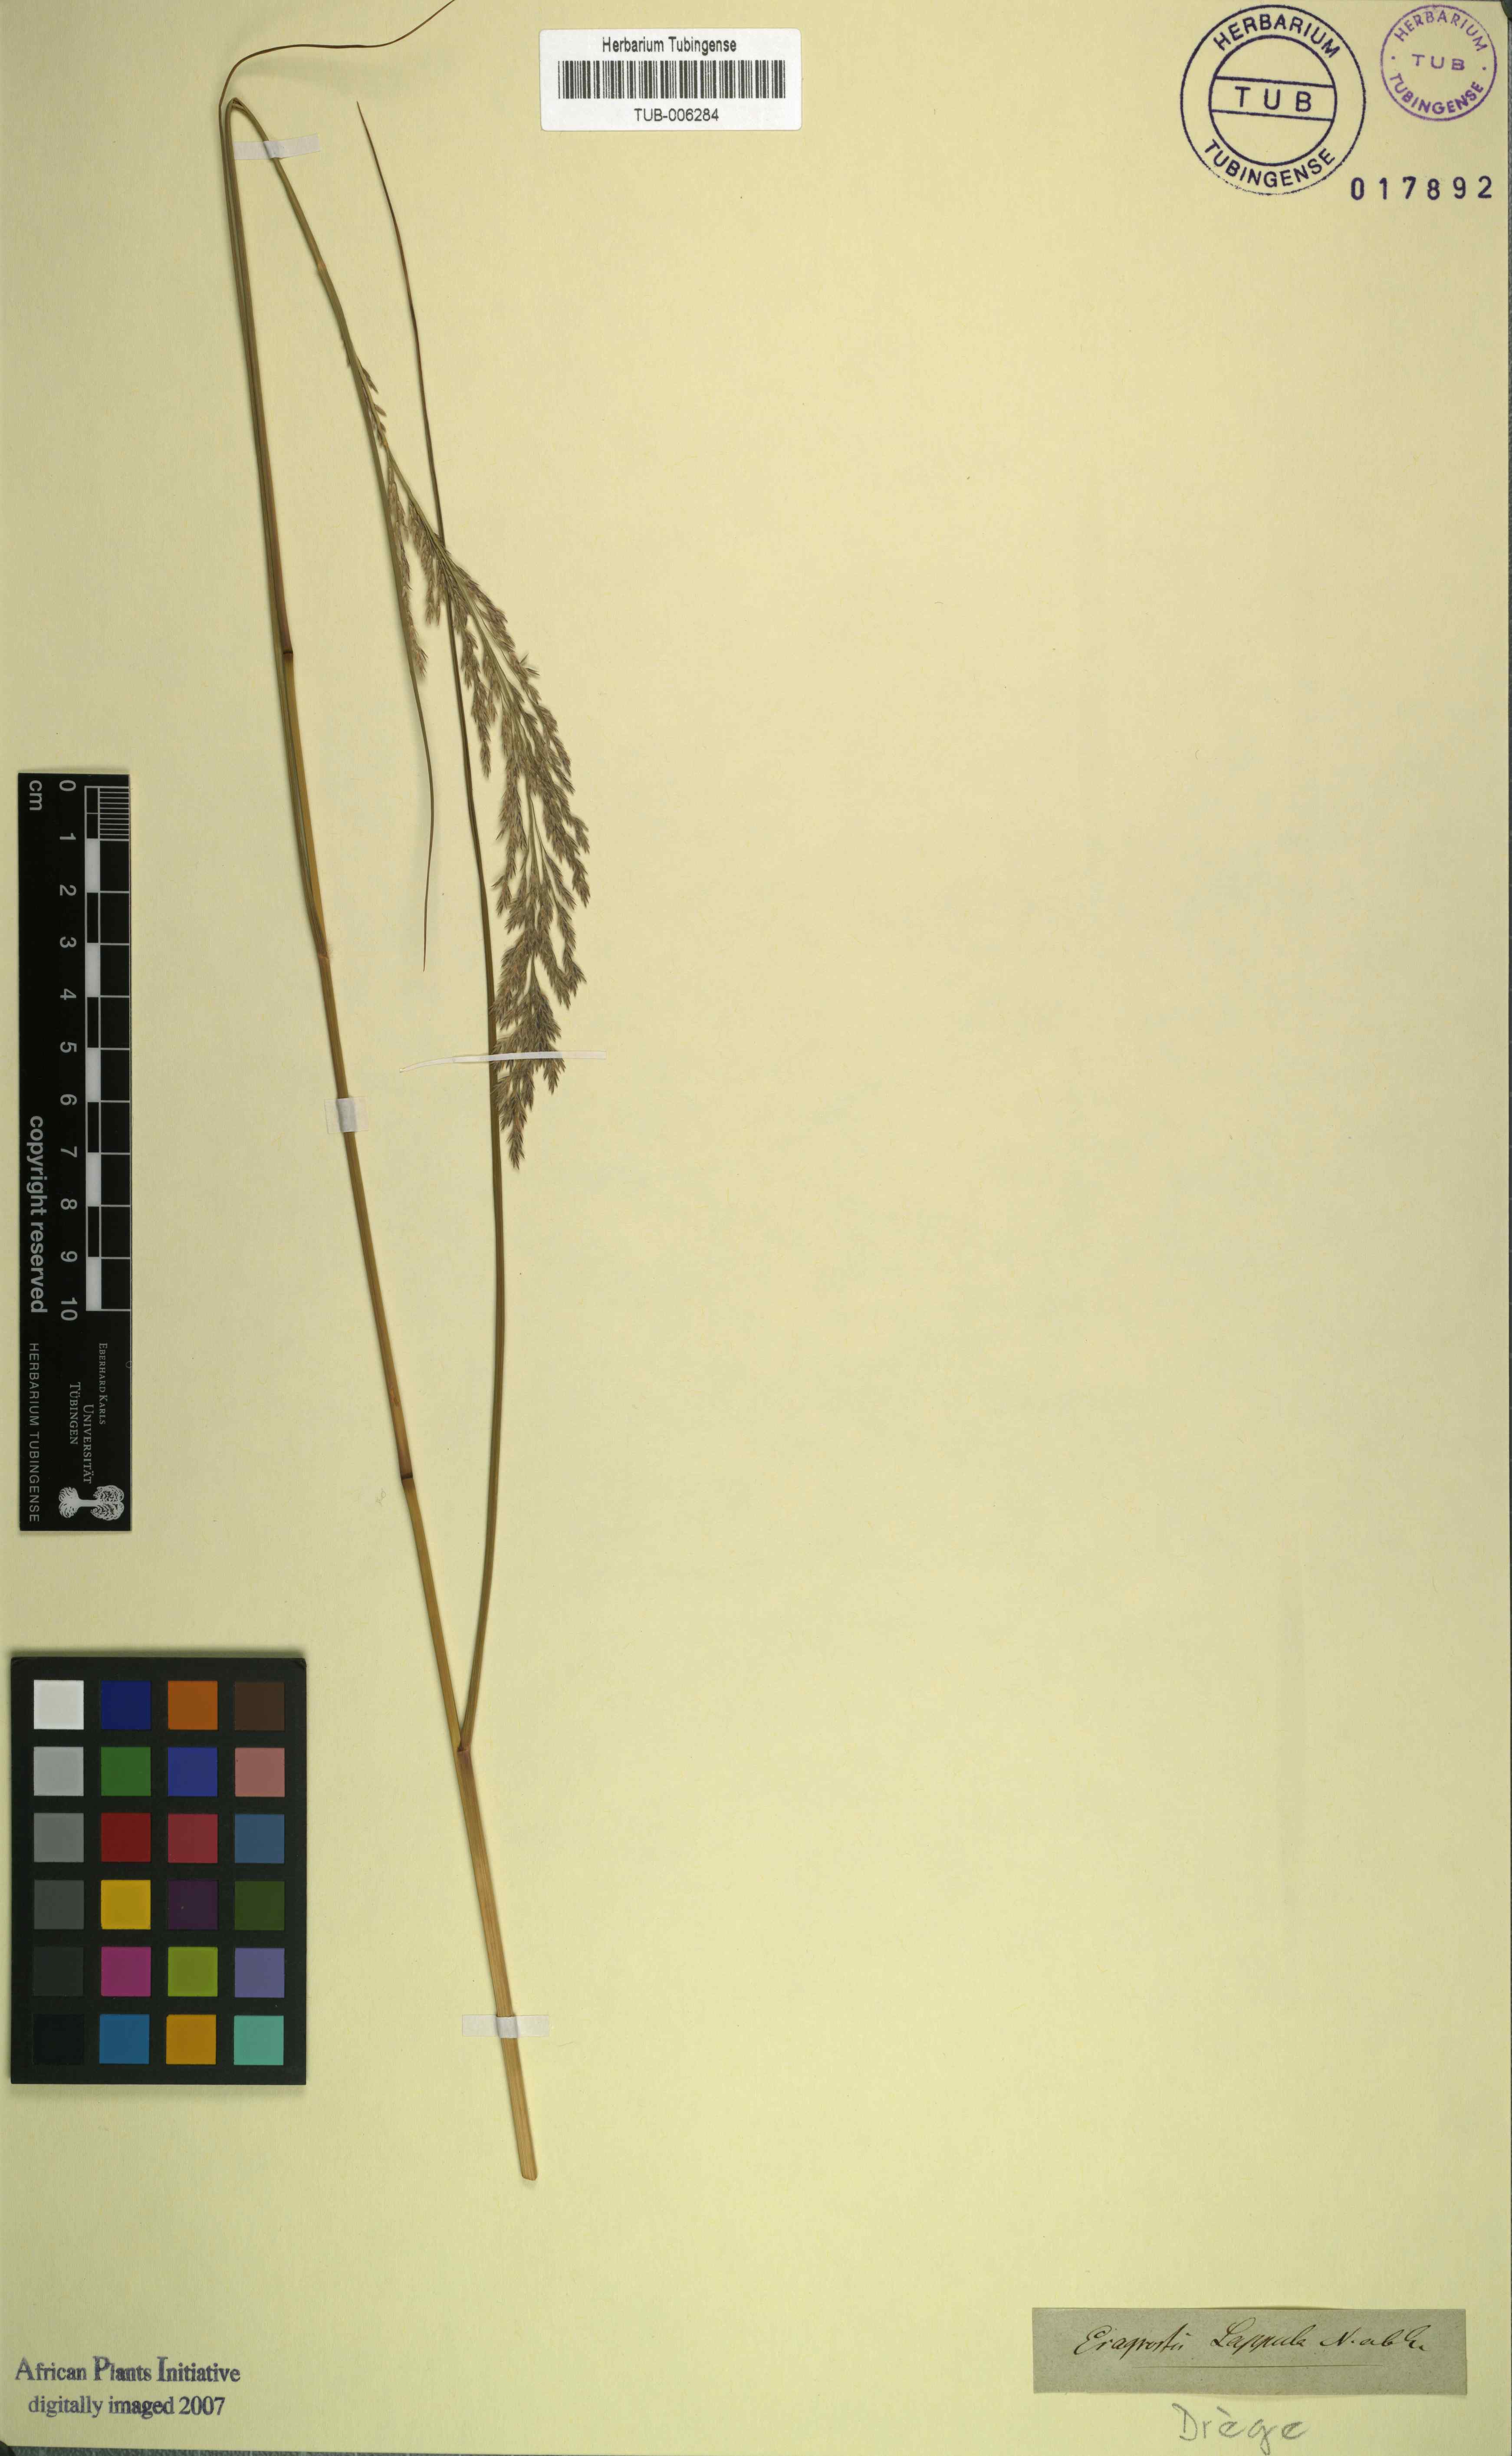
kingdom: Plantae
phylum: Tracheophyta
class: Liliopsida
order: Poales
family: Poaceae
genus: Eragrostis
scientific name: Eragrostis lappula
